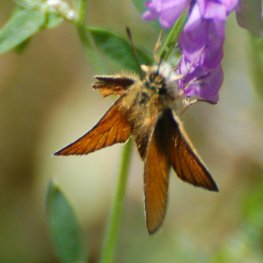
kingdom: Animalia
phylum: Arthropoda
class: Insecta
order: Lepidoptera
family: Hesperiidae
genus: Thymelicus
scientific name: Thymelicus lineola
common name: European Skipper
